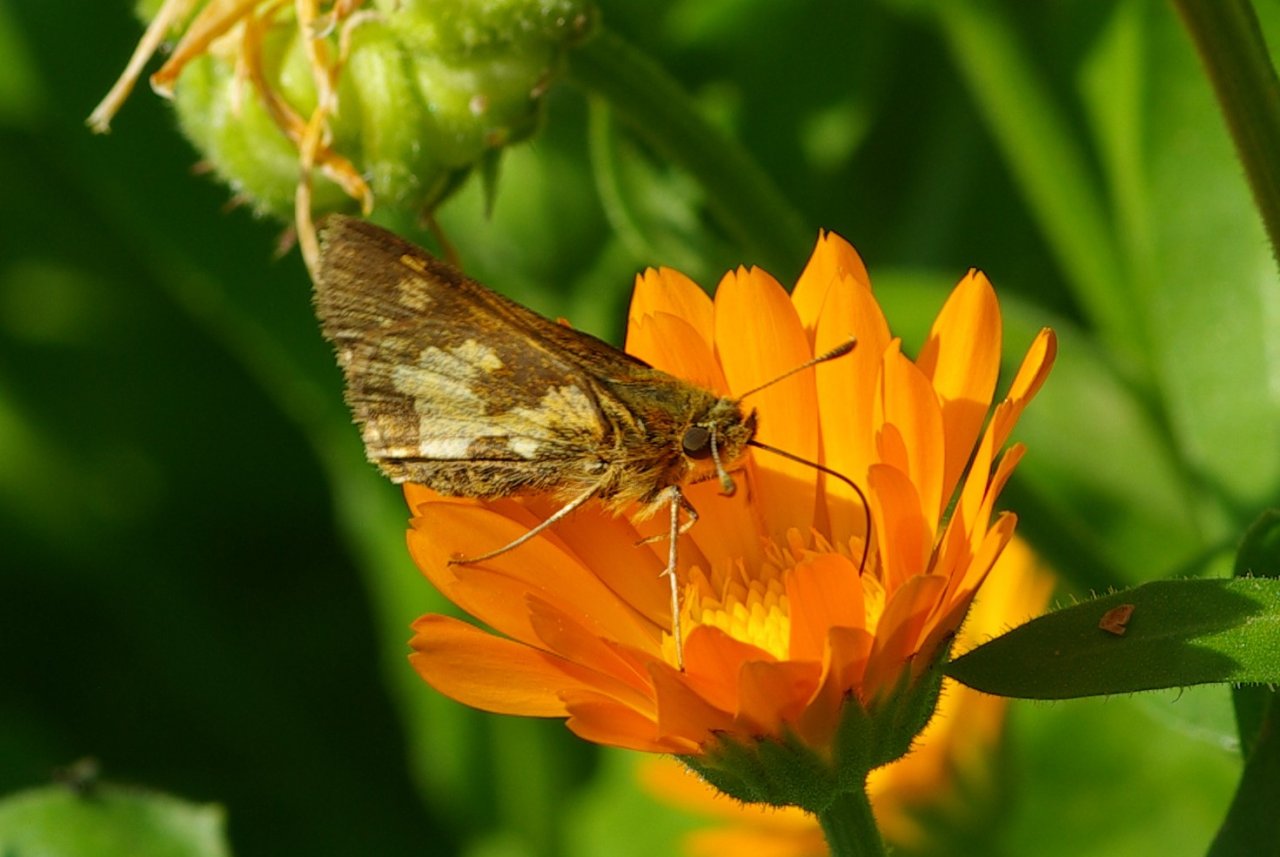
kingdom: Animalia
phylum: Arthropoda
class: Insecta
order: Lepidoptera
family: Hesperiidae
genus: Polites
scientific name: Polites coras
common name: Peck's Skipper
